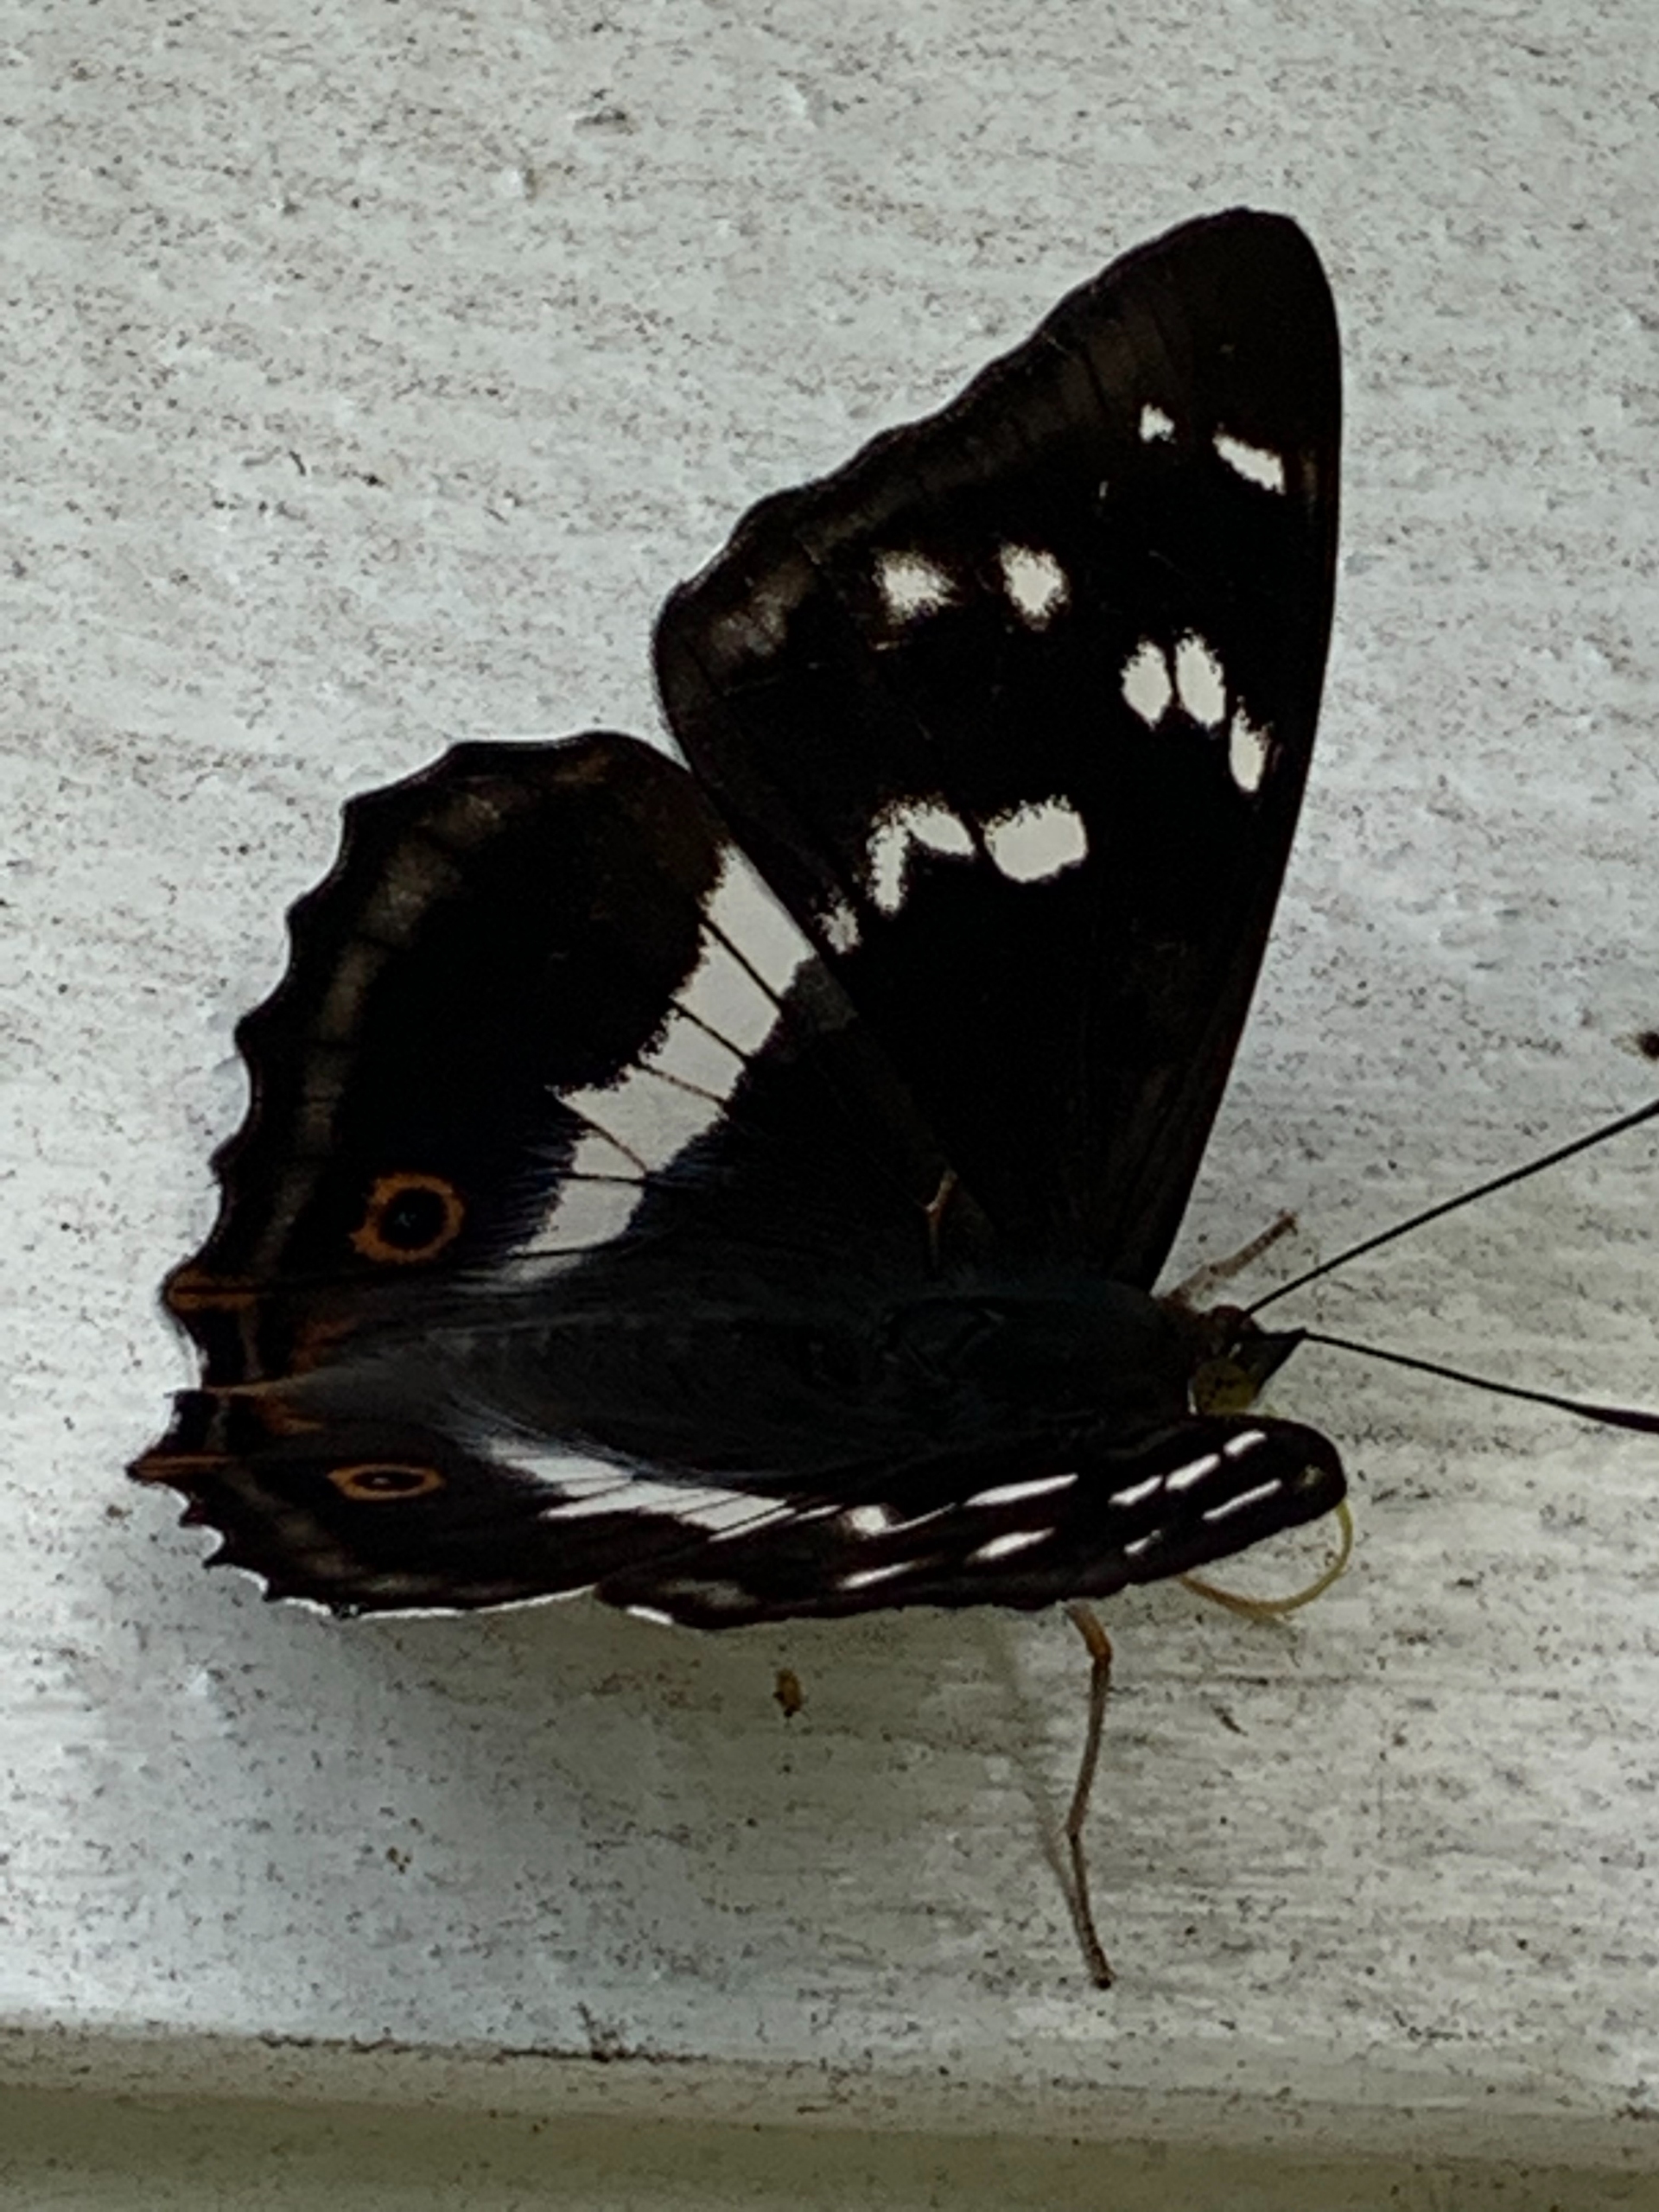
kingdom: Animalia
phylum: Arthropoda
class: Insecta
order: Lepidoptera
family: Nymphalidae
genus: Apatura
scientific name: Apatura iris
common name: Iris
